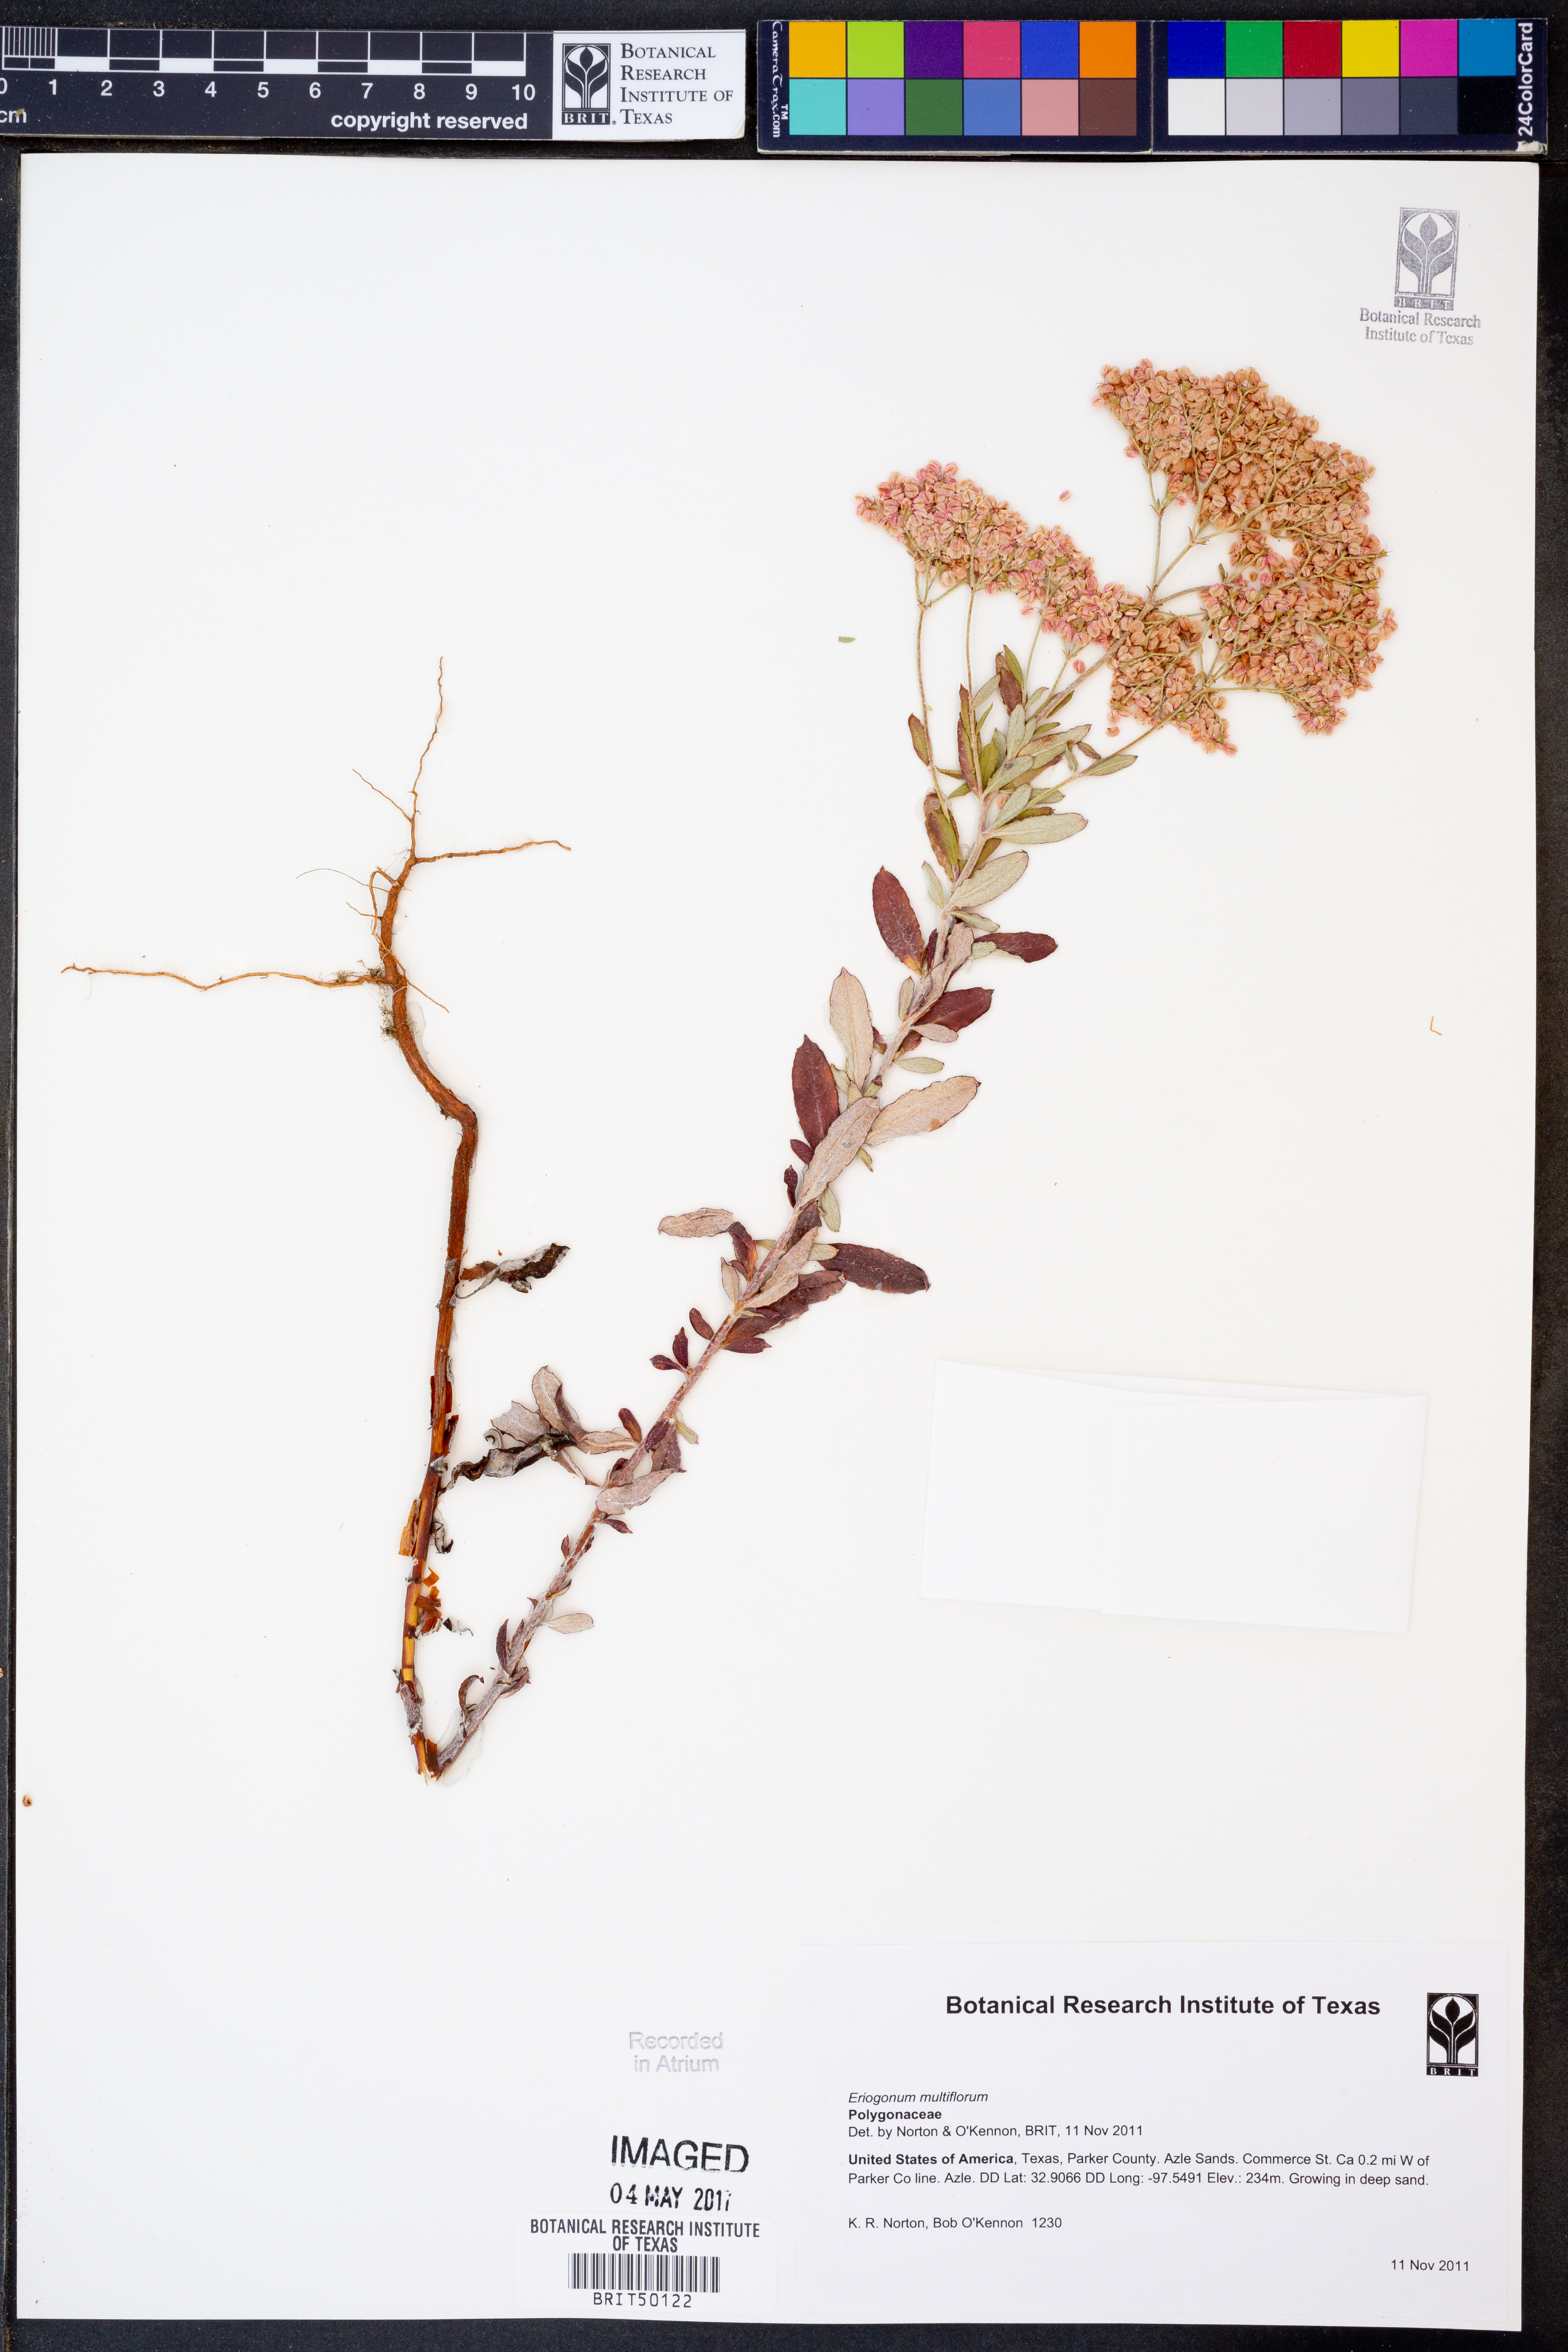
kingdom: Plantae
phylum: Tracheophyta
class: Magnoliopsida
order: Caryophyllales
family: Polygonaceae
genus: Eriogonum
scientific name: Eriogonum multiflorum
